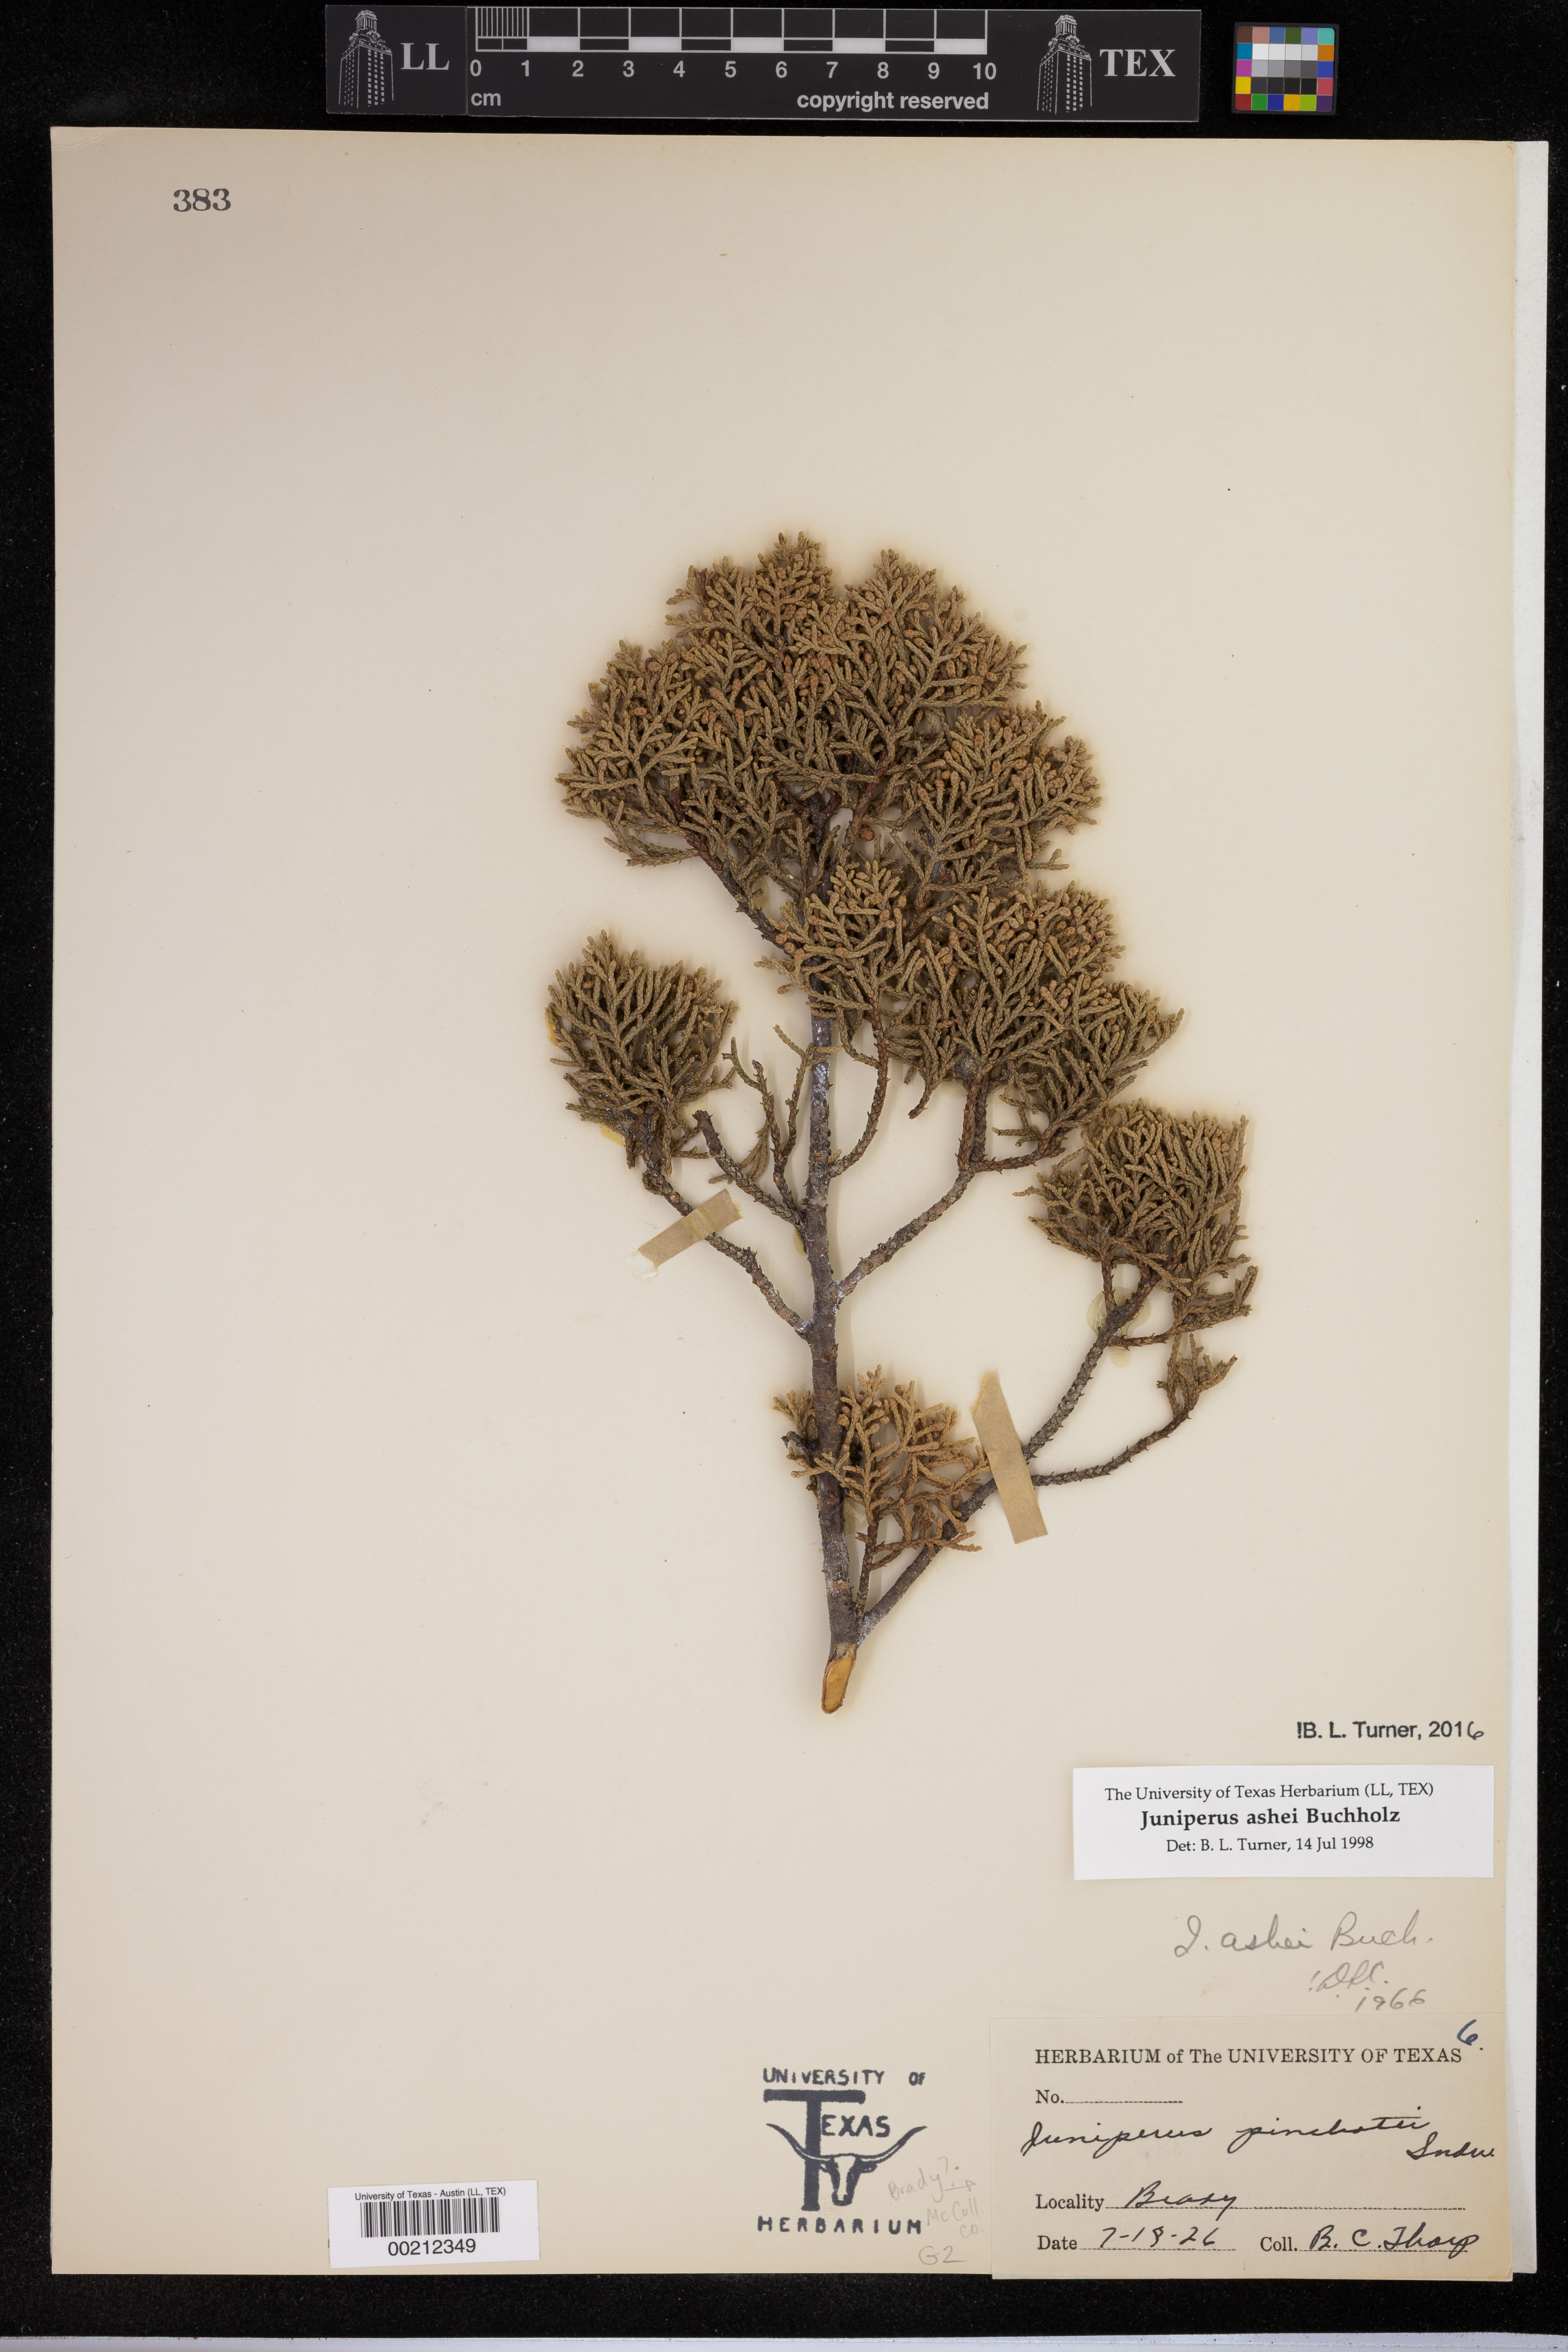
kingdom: Plantae
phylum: Tracheophyta
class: Magnoliopsida
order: Asterales
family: Asteraceae
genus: Bidens
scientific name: Bidens aristosa
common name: Western tickseed
